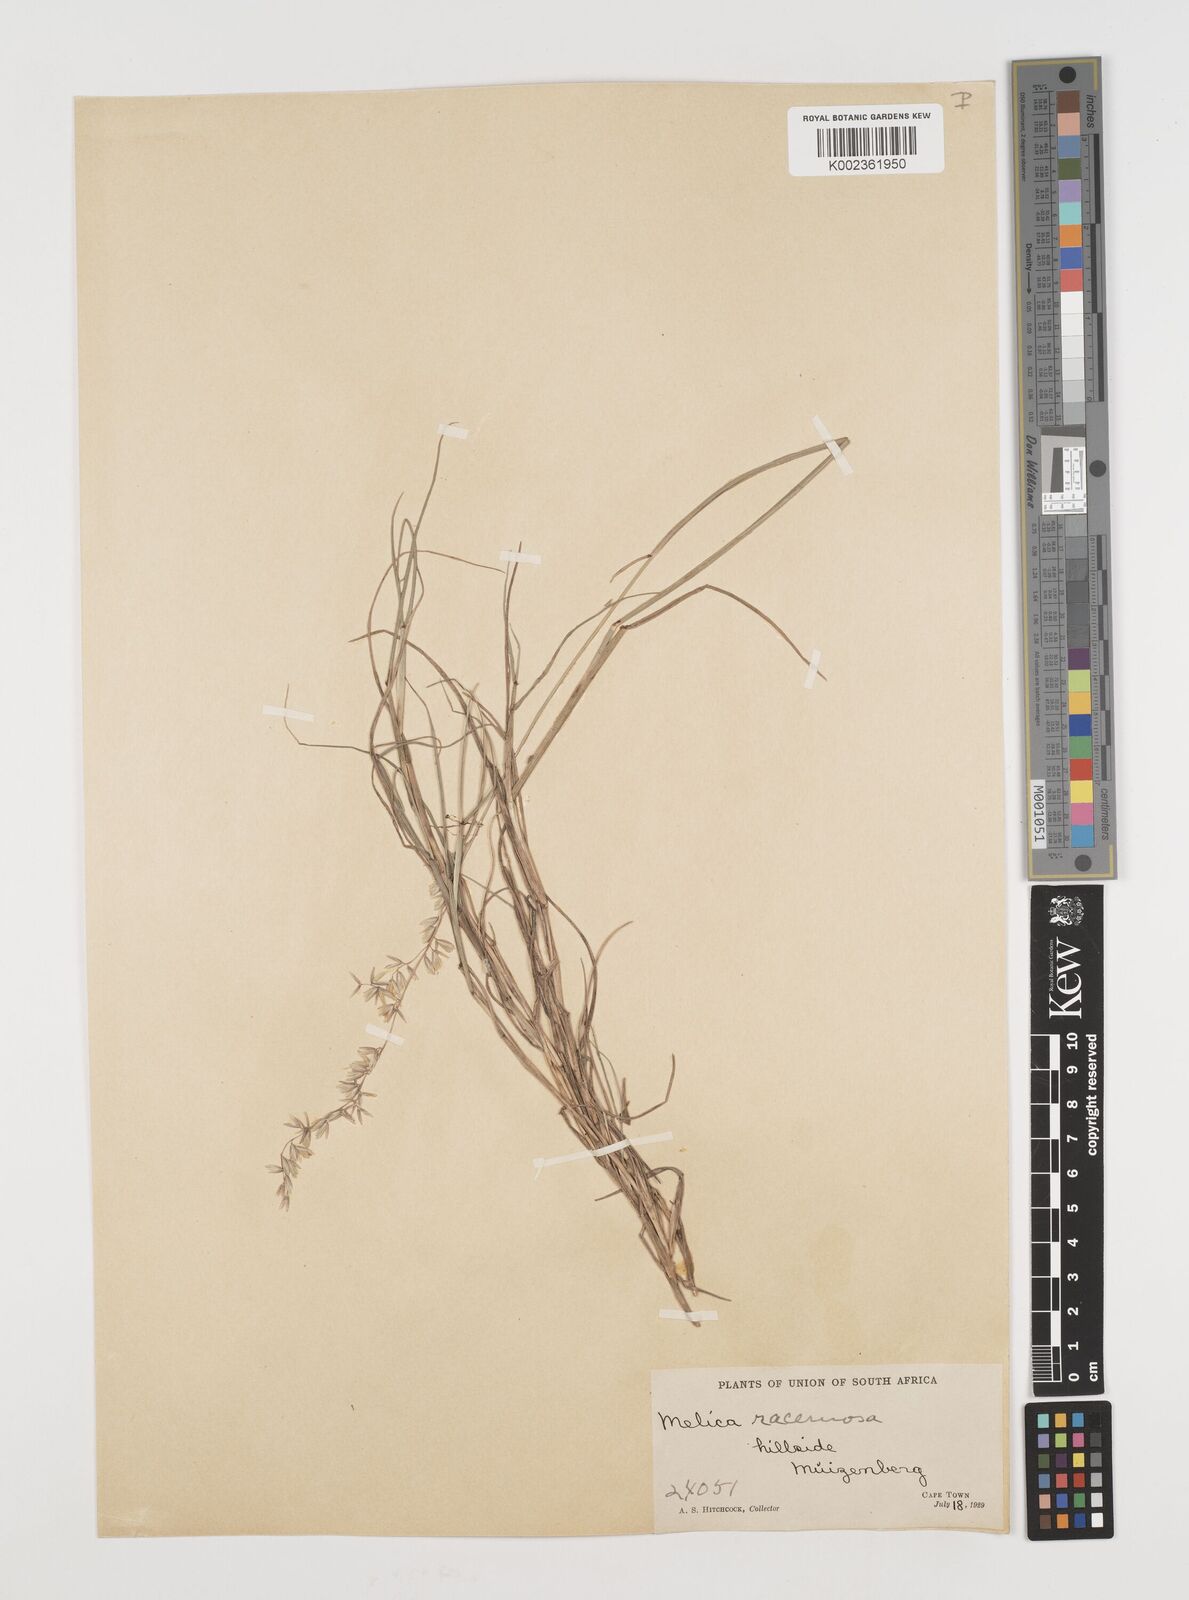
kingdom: Plantae
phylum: Tracheophyta
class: Liliopsida
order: Poales
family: Poaceae
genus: Ehrharta
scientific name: Ehrharta calycina
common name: Perennial veldtgrass
